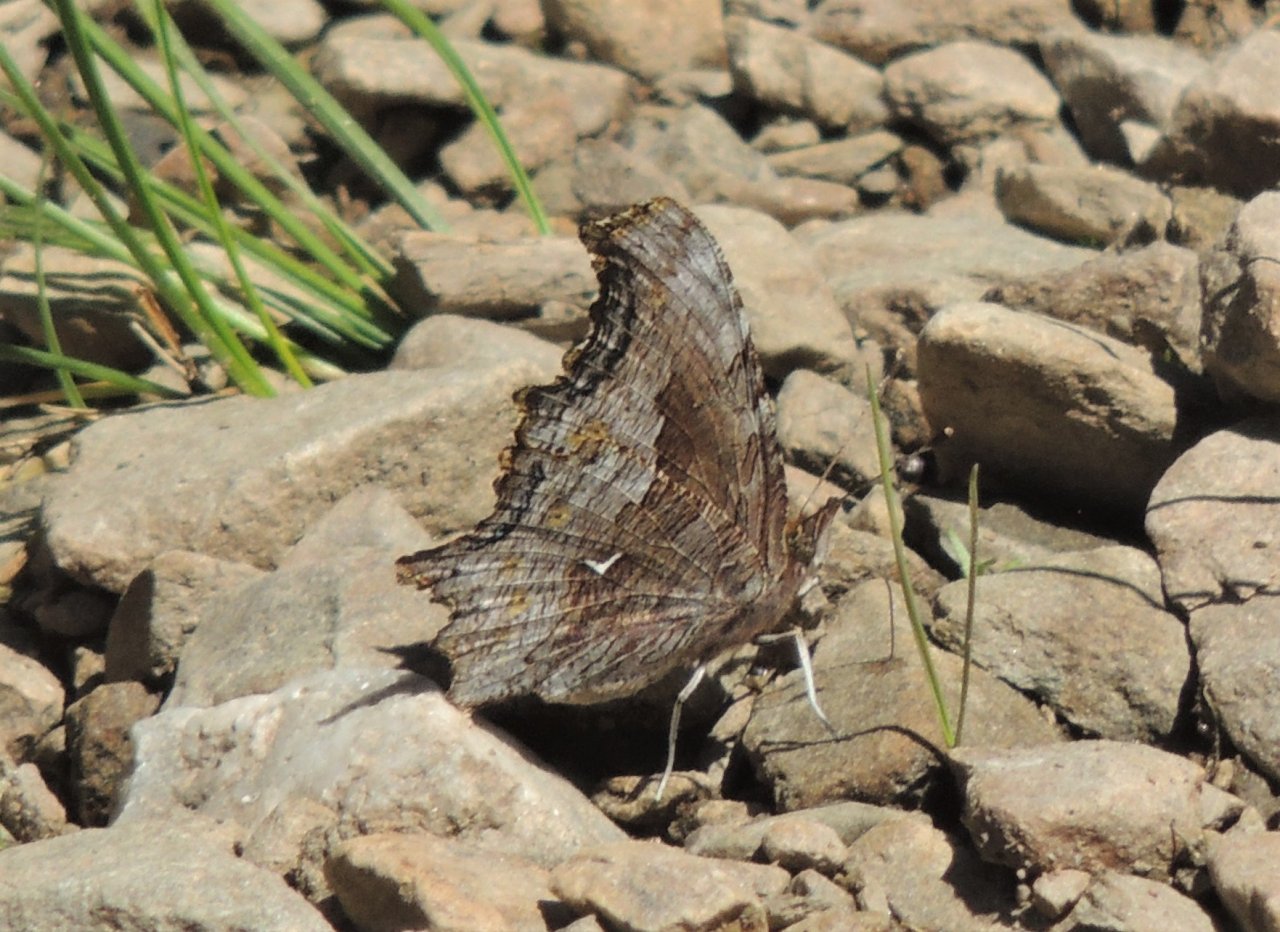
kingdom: Animalia
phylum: Arthropoda
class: Insecta
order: Lepidoptera
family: Nymphalidae
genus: Polygonia
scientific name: Polygonia gracilis
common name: Hoary Comma
